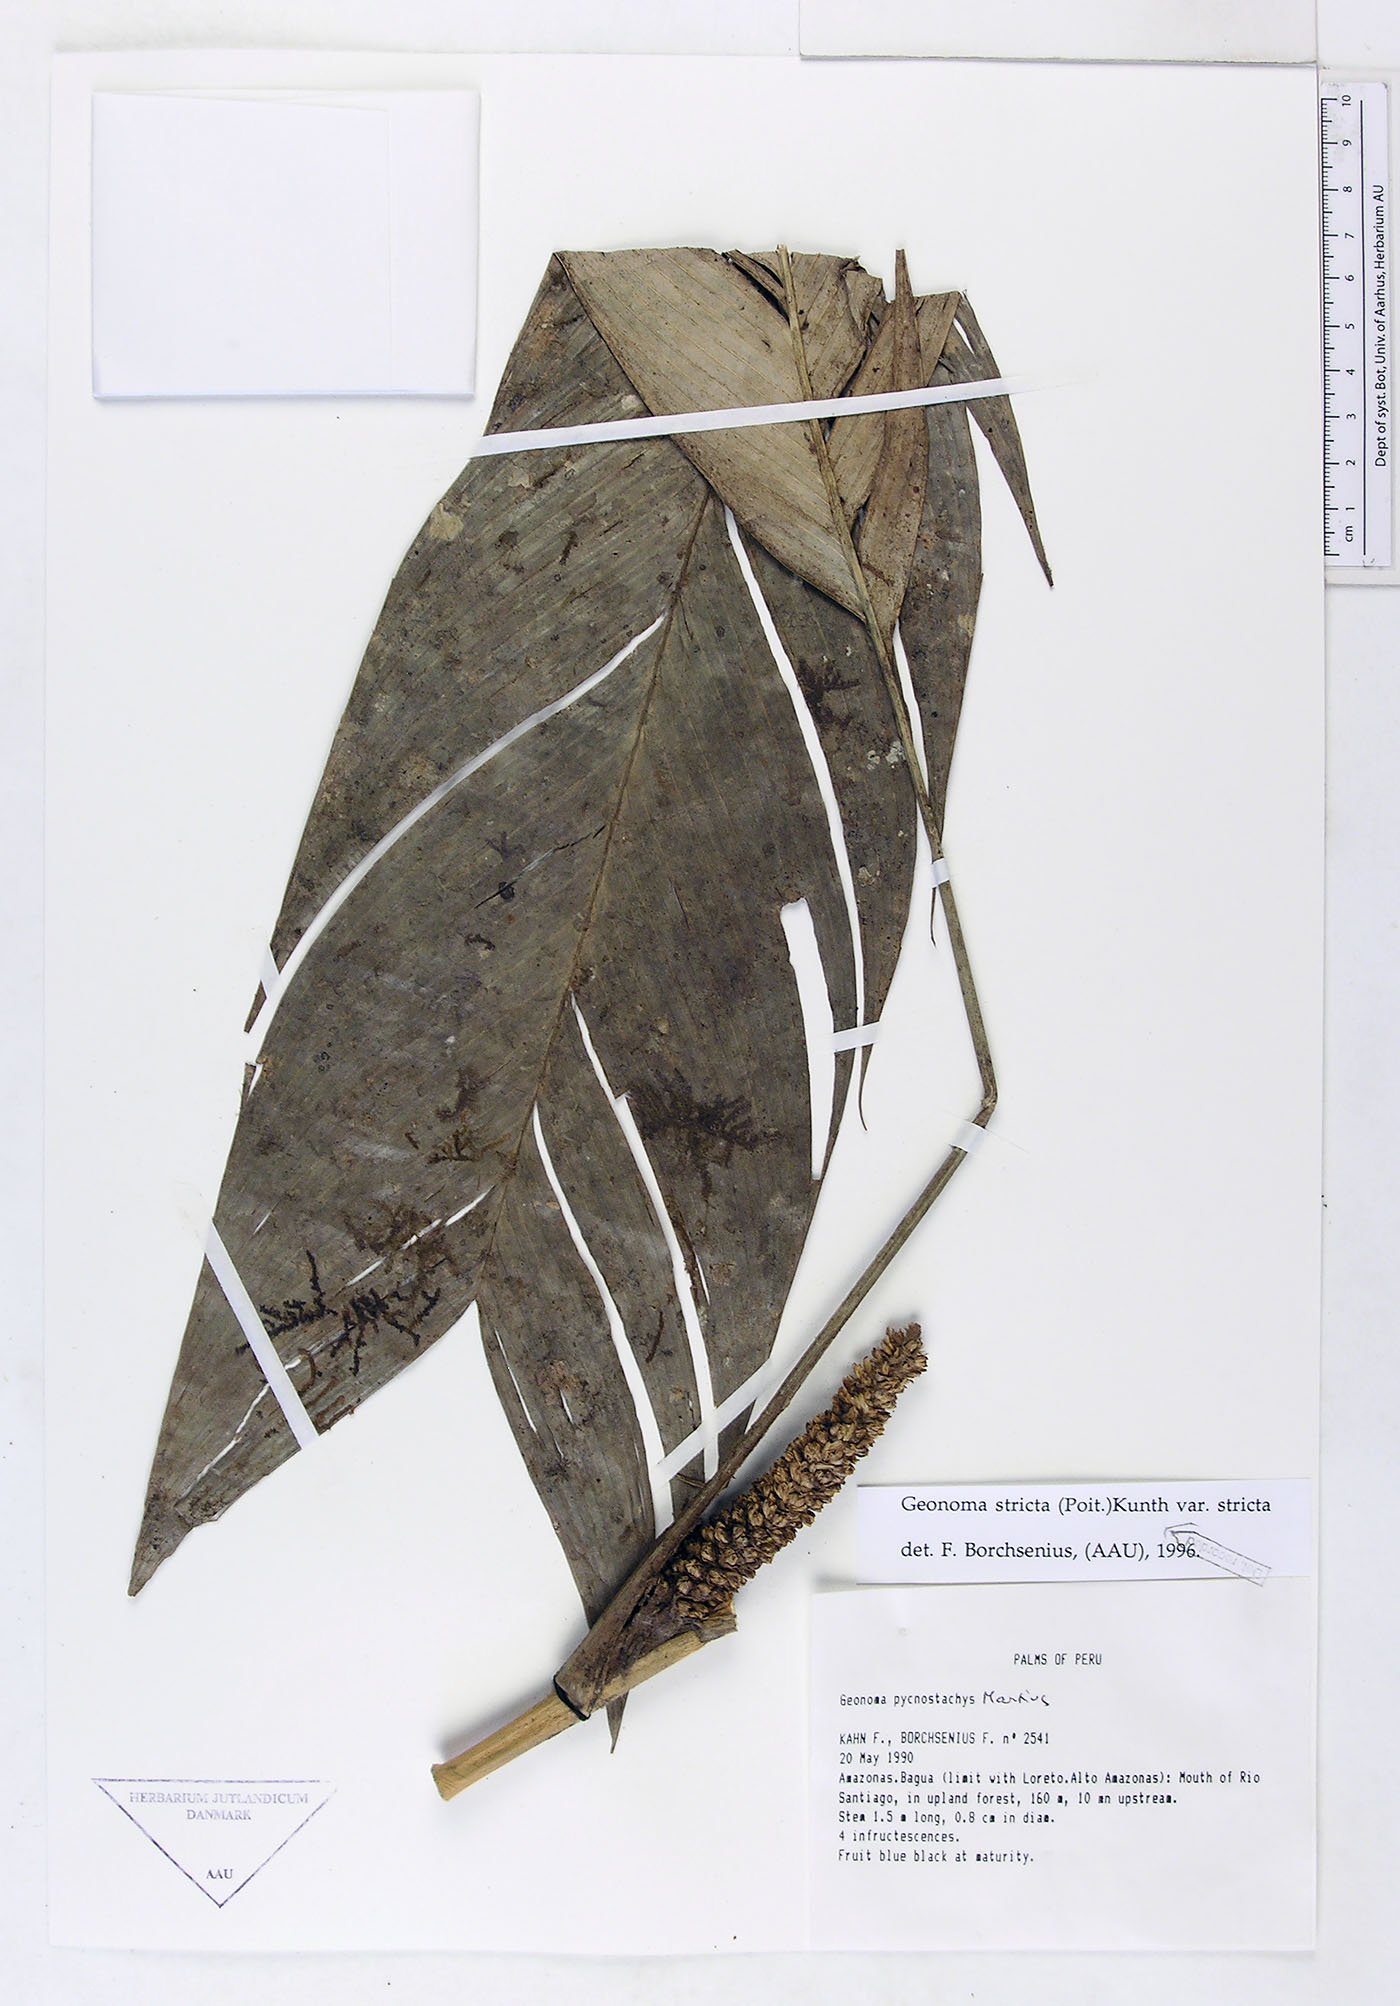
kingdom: Plantae
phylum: Tracheophyta
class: Liliopsida
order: Arecales
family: Arecaceae
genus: Geonoma
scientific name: Geonoma stricta
